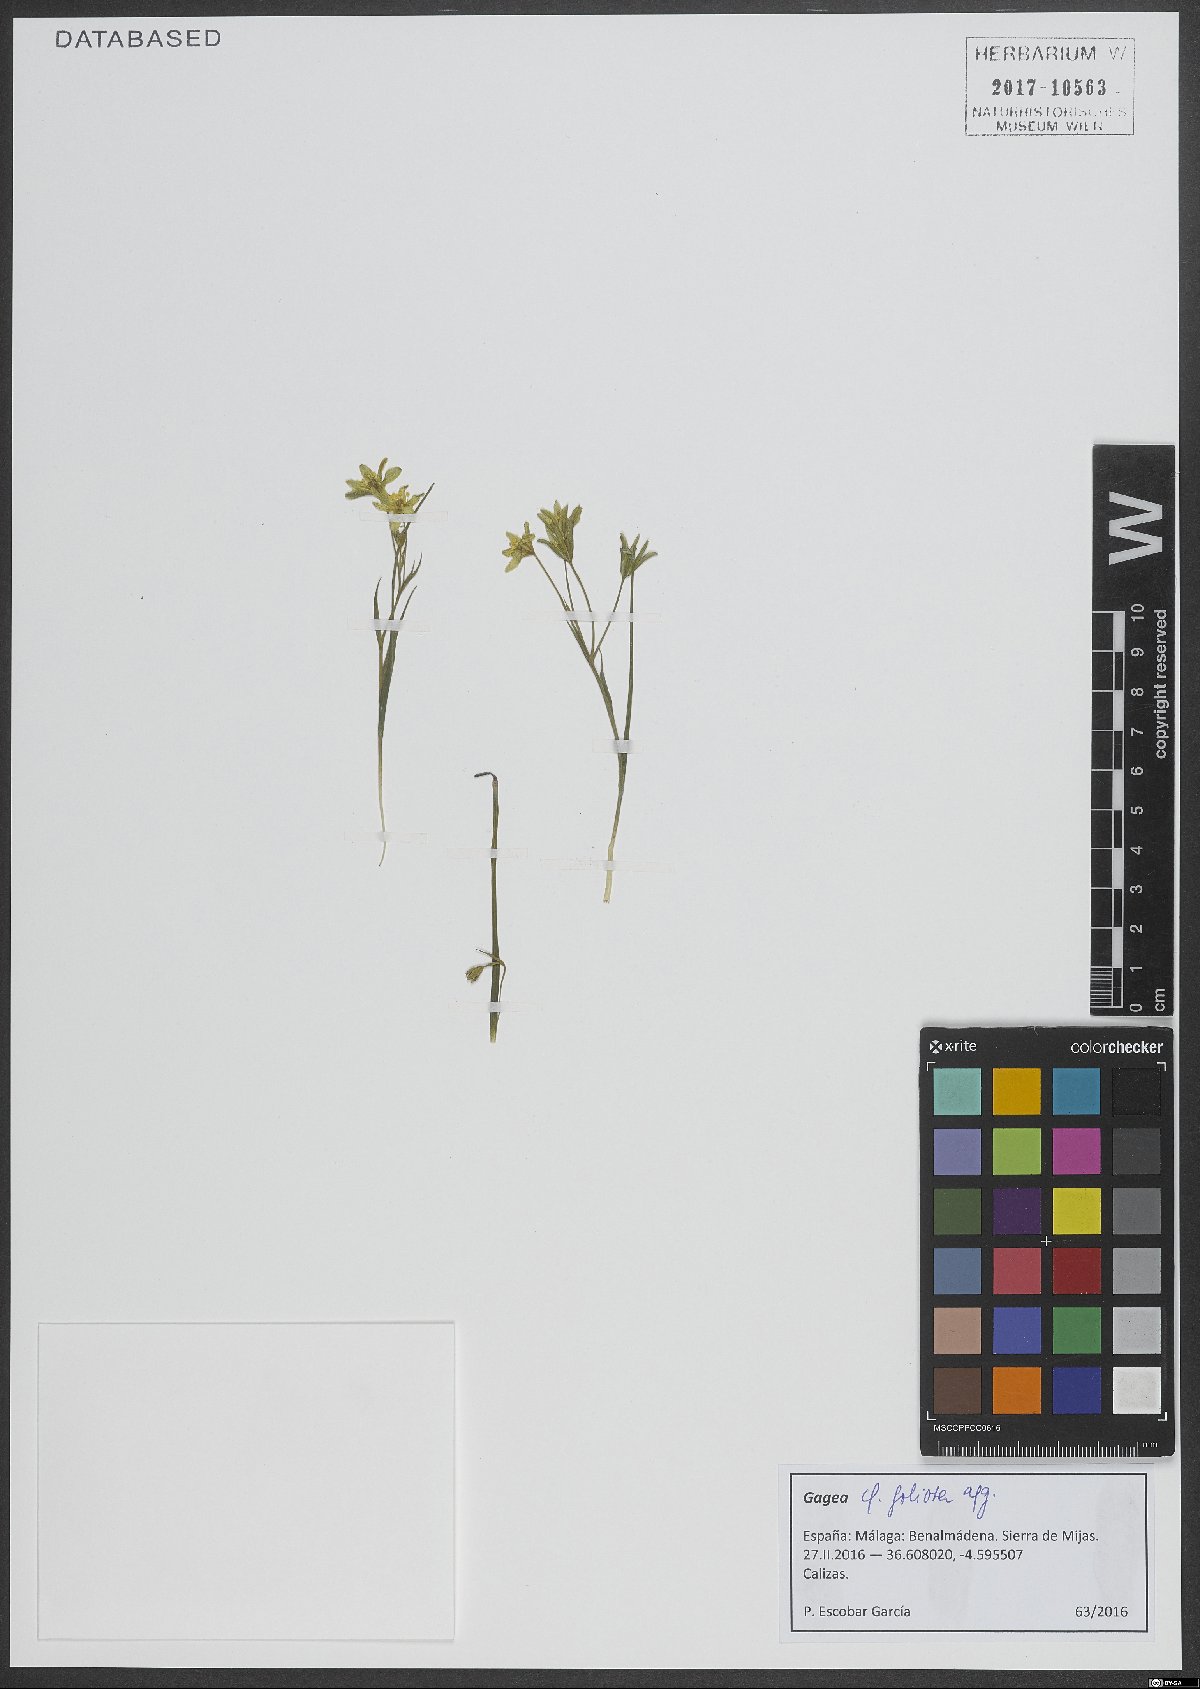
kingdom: Plantae
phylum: Tracheophyta
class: Liliopsida
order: Liliales
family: Liliaceae
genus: Gagea
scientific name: Gagea foliosa
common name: Leafy gagea
